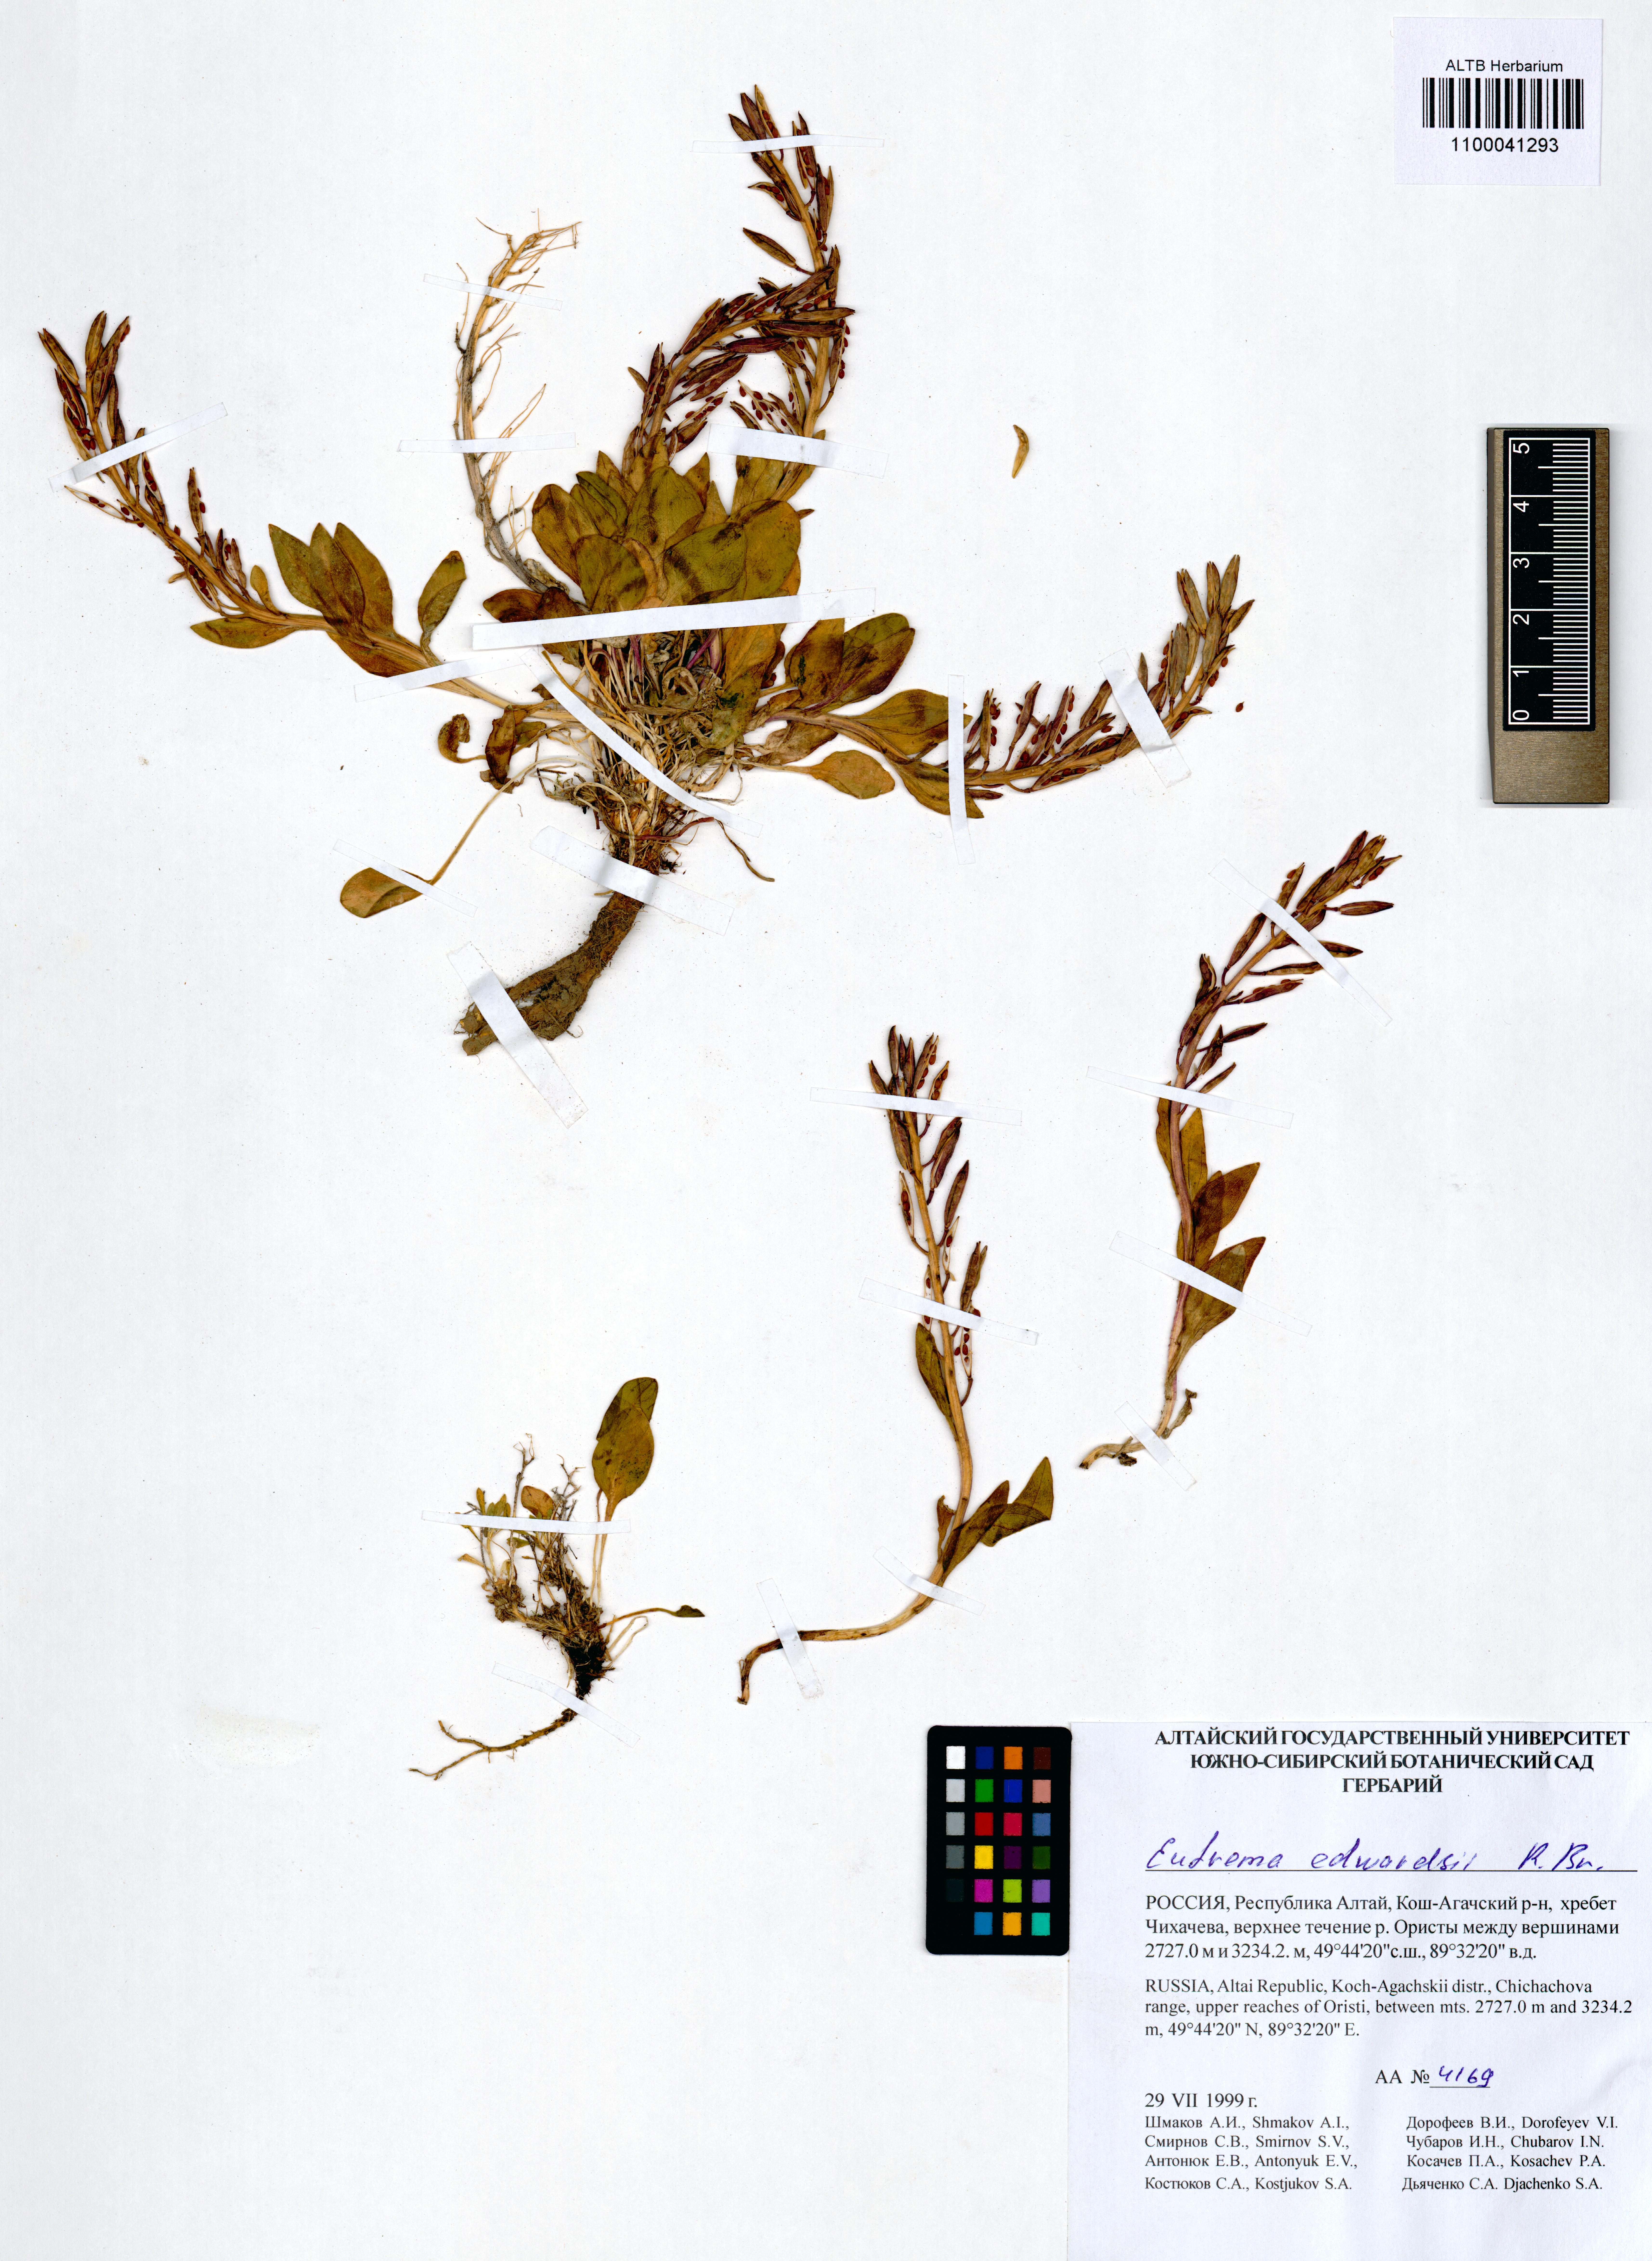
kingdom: Plantae
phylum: Tracheophyta
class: Magnoliopsida
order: Brassicales
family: Brassicaceae
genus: Eutrema
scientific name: Eutrema edwardsii
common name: Penland alpine fen mustard
